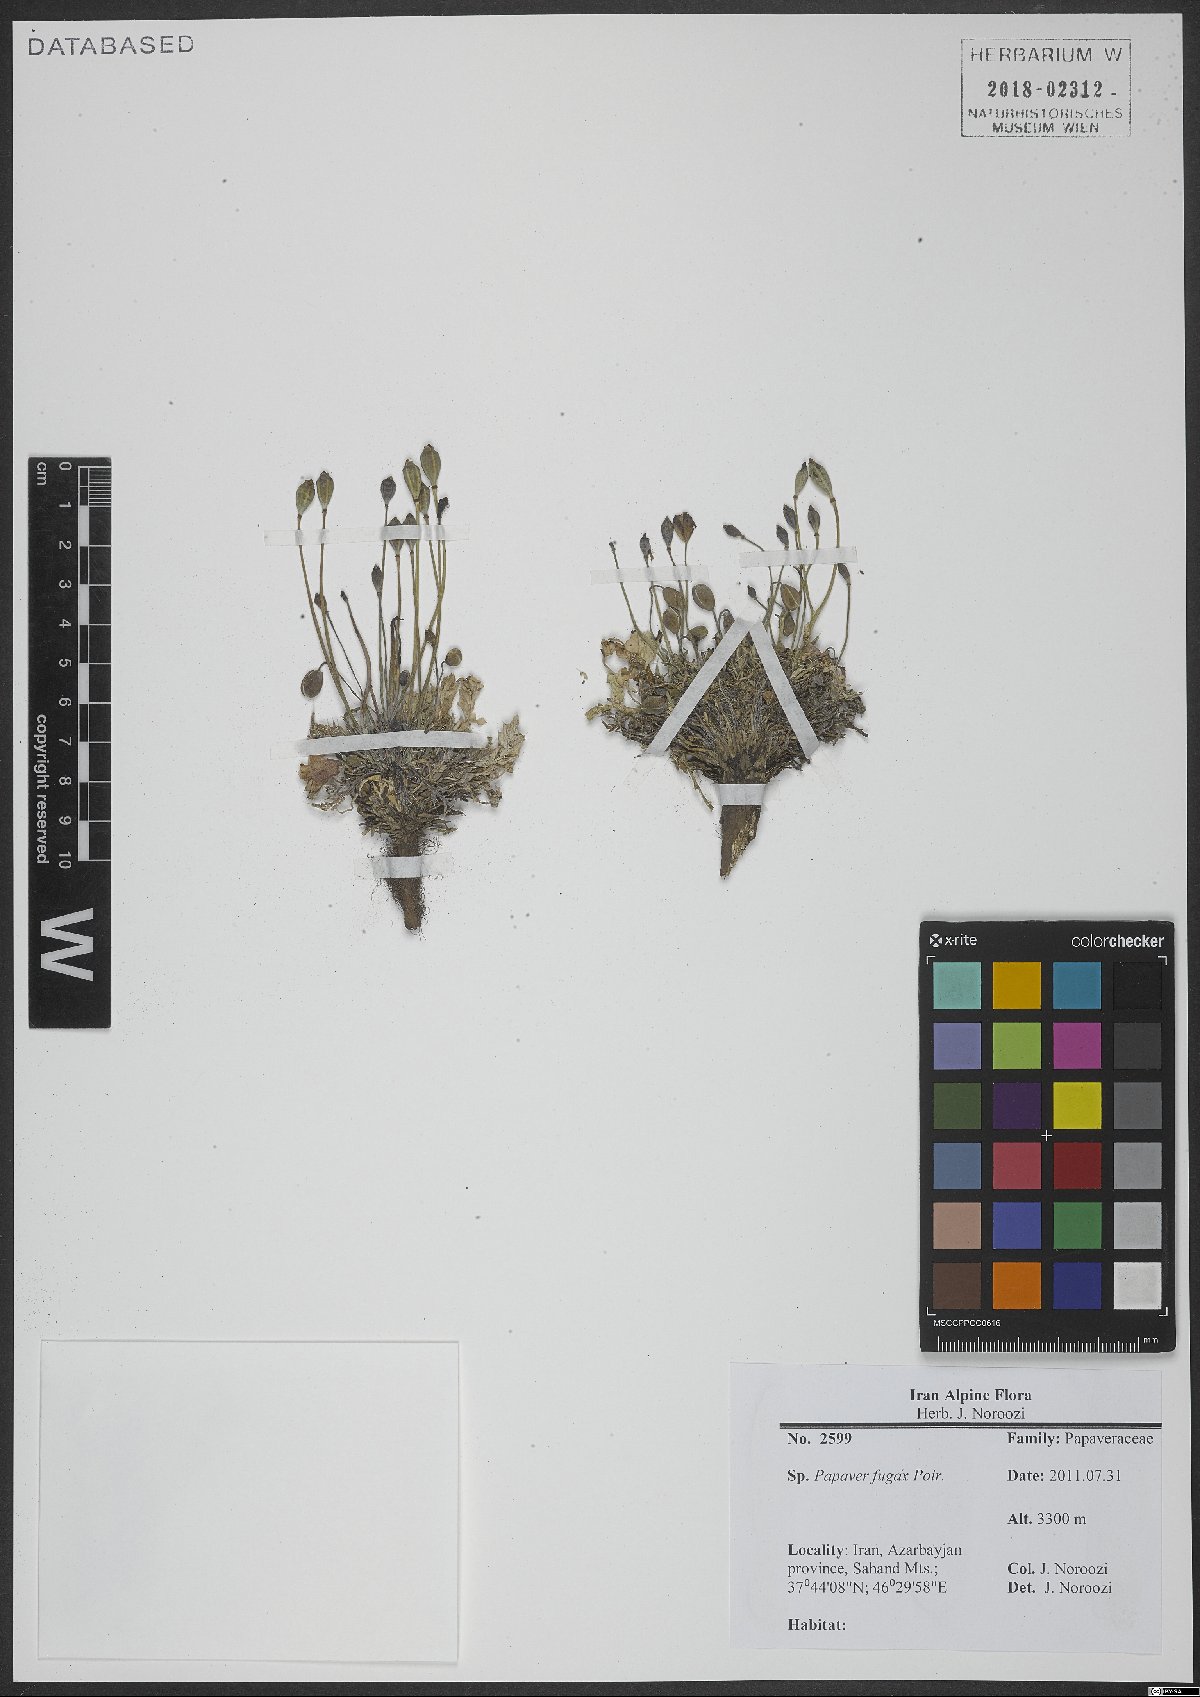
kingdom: Plantae
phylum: Tracheophyta
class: Magnoliopsida
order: Ranunculales
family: Papaveraceae
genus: Papaver
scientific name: Papaver armeniacum
